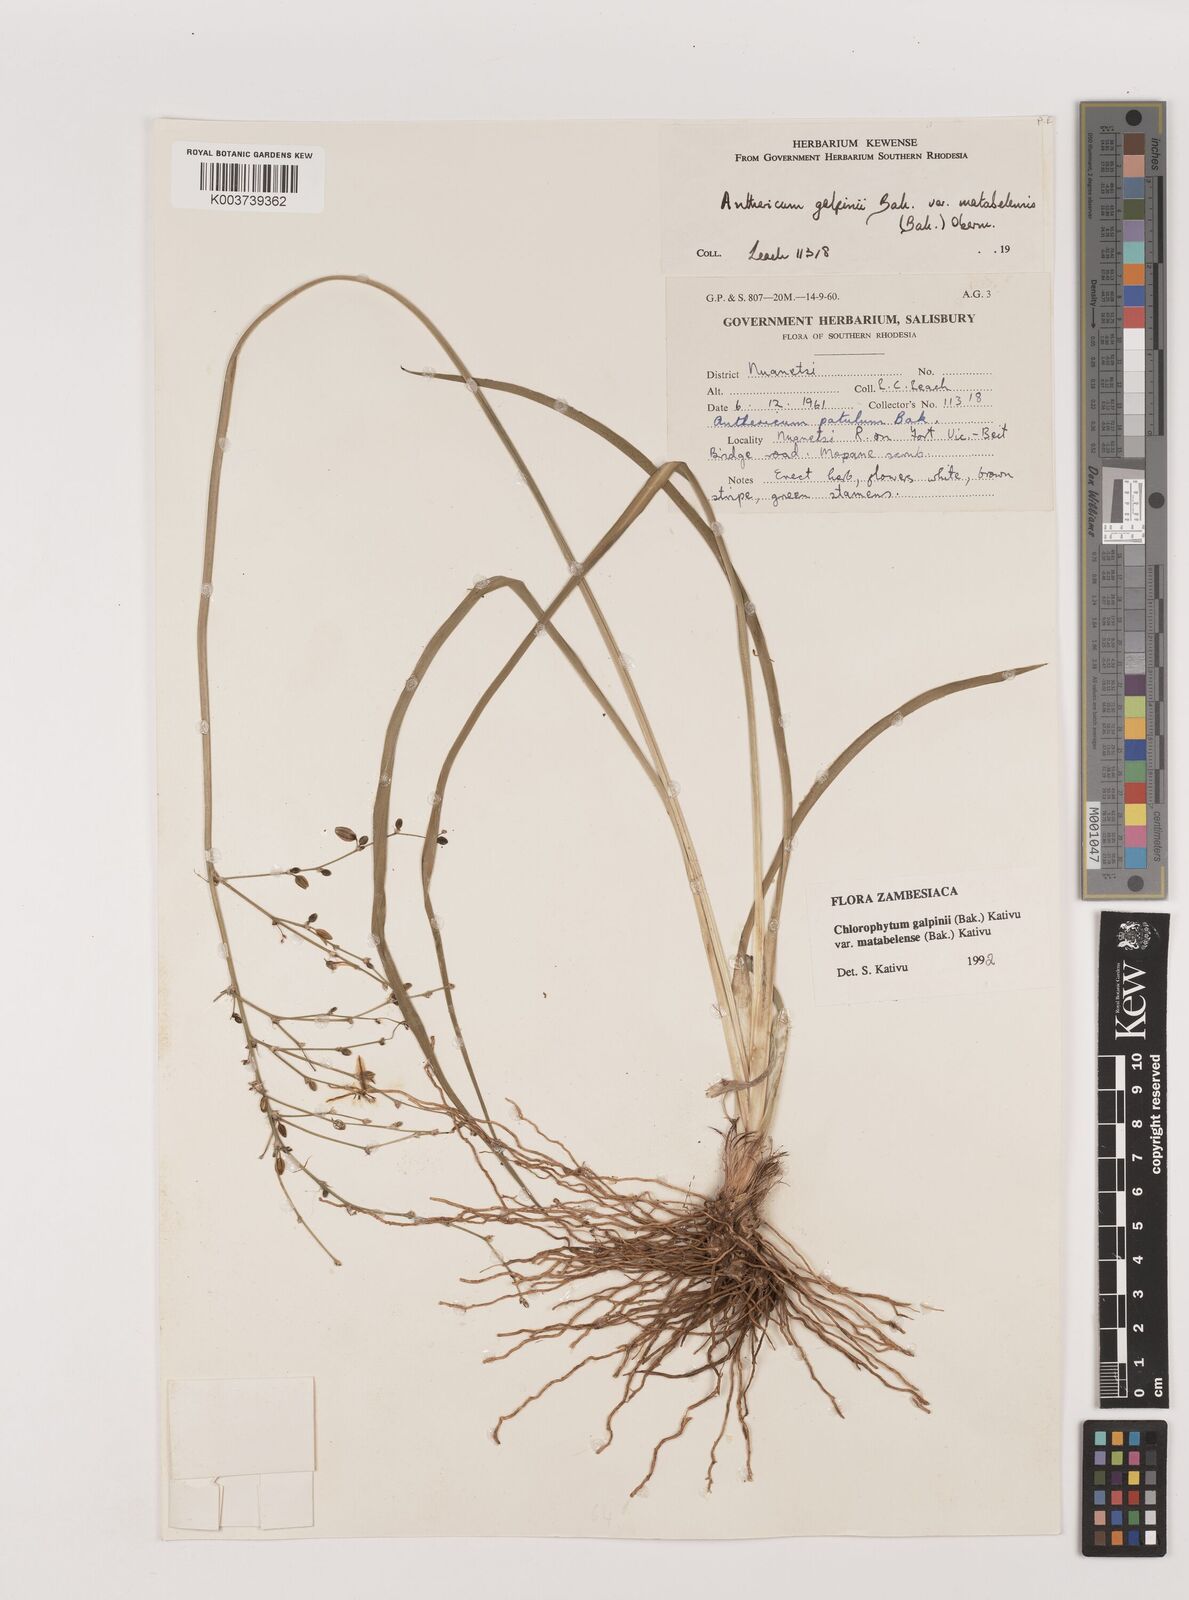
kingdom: Plantae
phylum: Tracheophyta
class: Liliopsida
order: Asparagales
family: Asparagaceae
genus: Chlorophytum
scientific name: Chlorophytum galpinii
